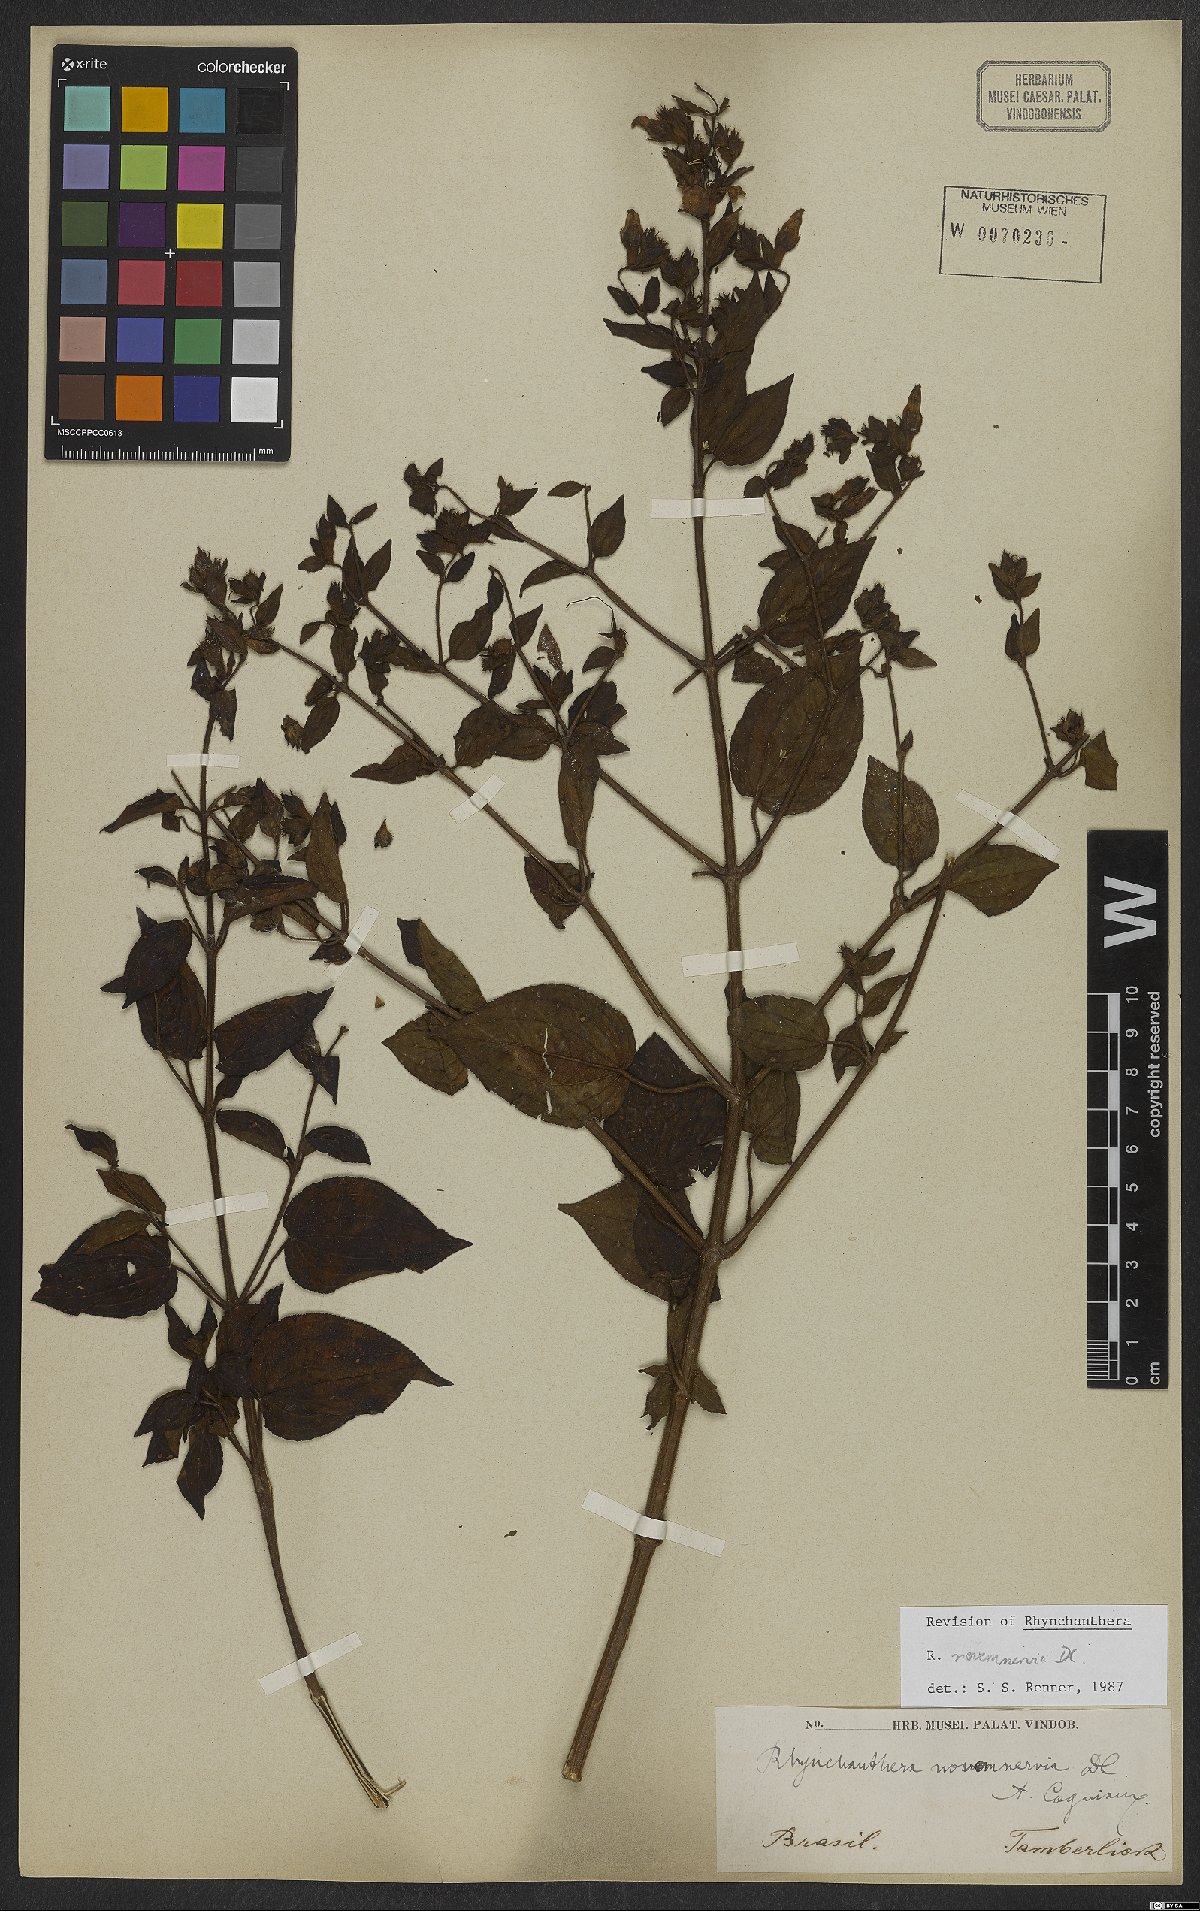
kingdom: Plantae
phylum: Tracheophyta
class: Magnoliopsida
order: Myrtales
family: Melastomataceae
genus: Rhynchanthera
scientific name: Rhynchanthera novemnervia
